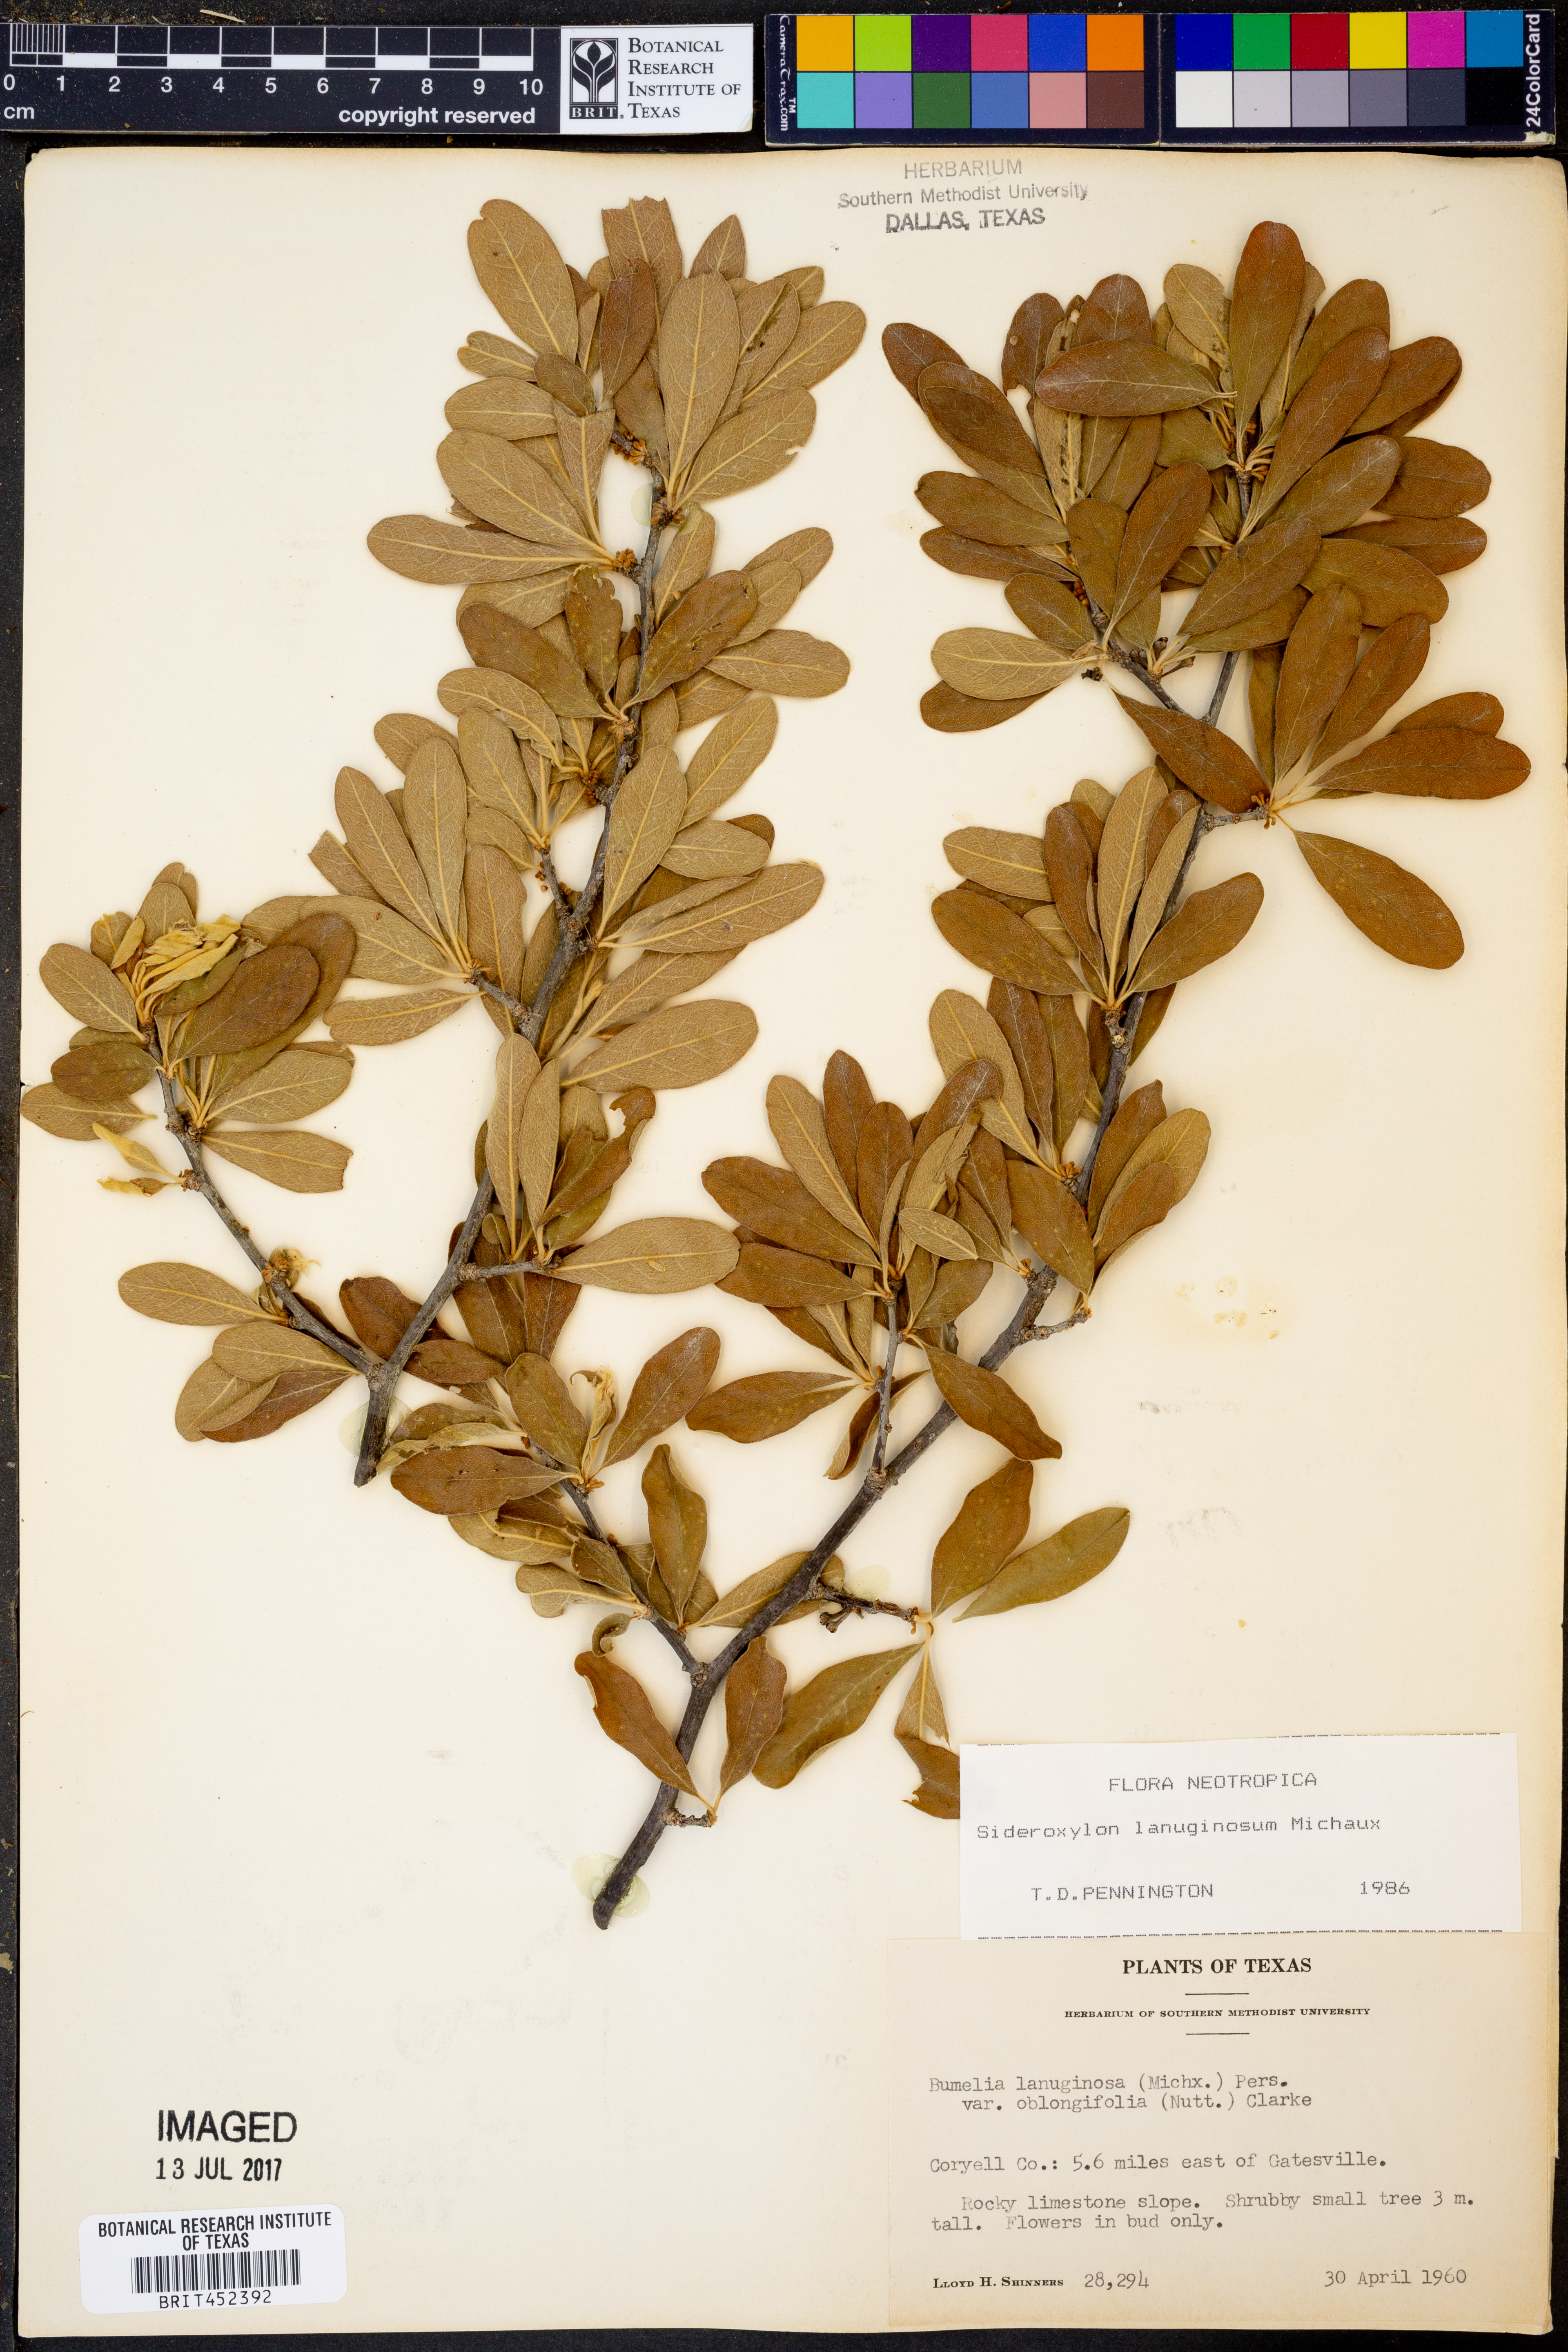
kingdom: Plantae
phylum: Tracheophyta
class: Magnoliopsida
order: Ericales
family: Sapotaceae
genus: Sideroxylon
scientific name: Sideroxylon lanuginosum
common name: Chittamwood
